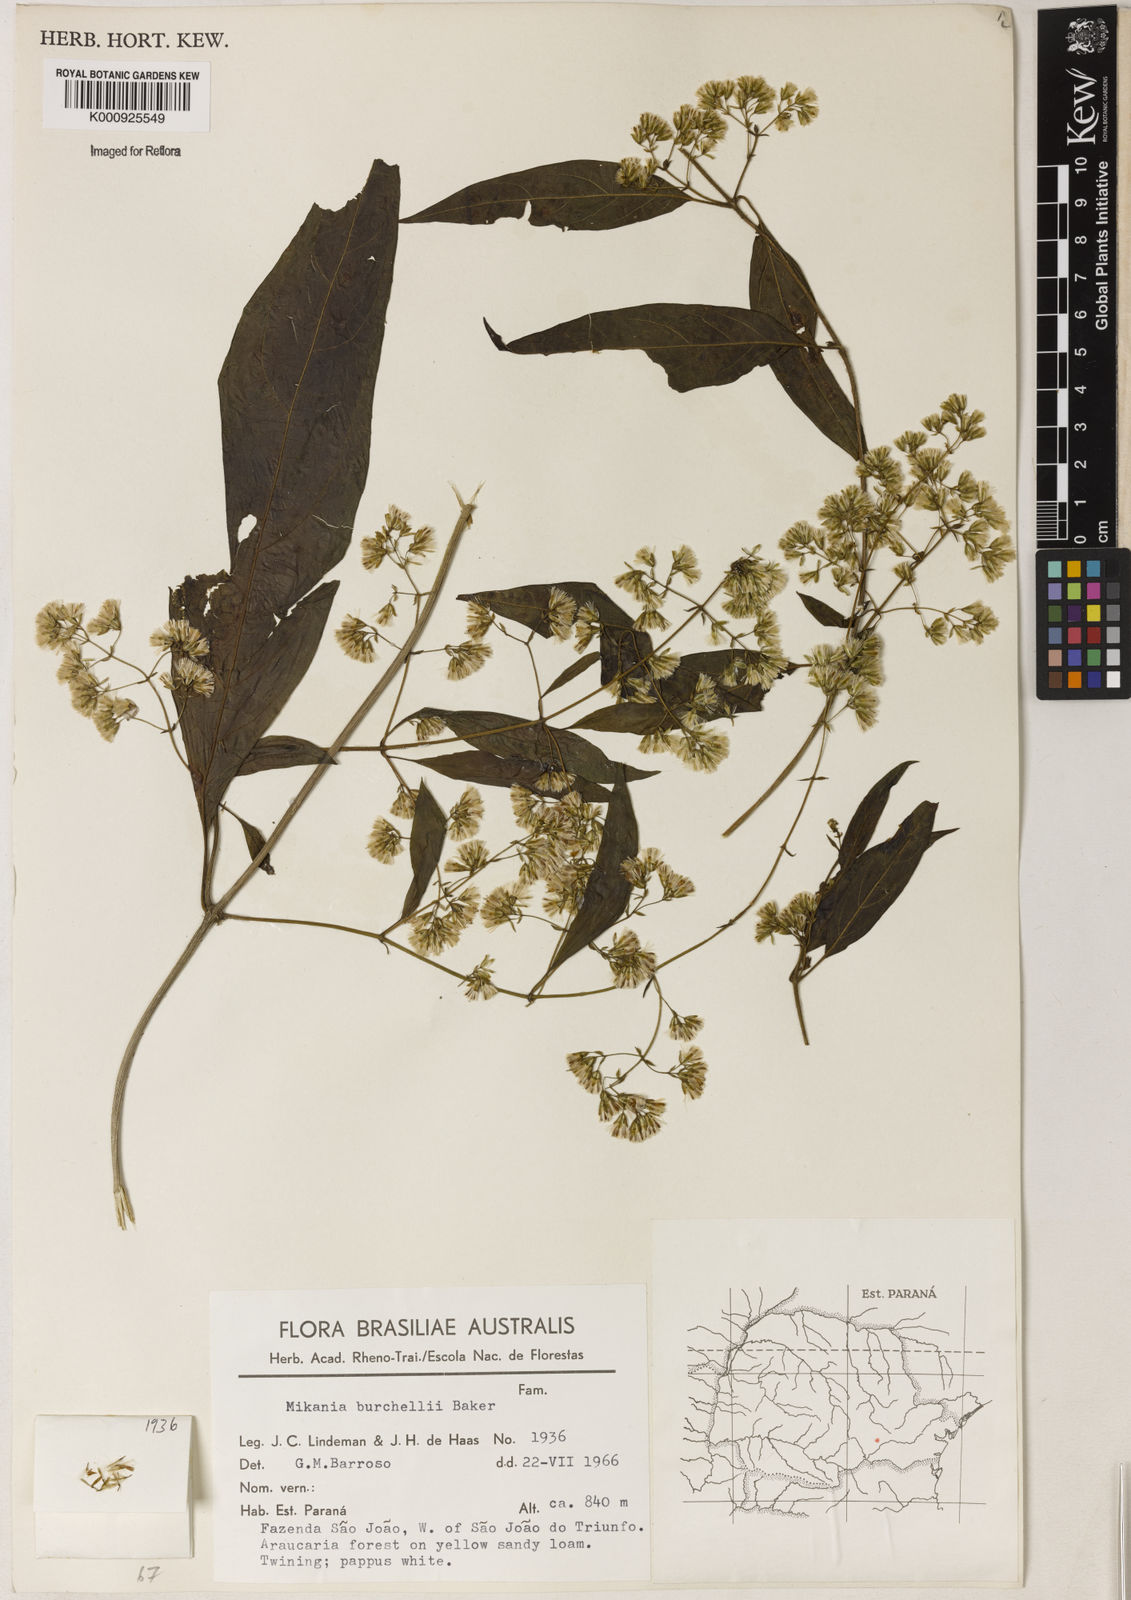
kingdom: Plantae
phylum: Tracheophyta
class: Magnoliopsida
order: Asterales
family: Asteraceae
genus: Mikania
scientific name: Mikania burchellii
